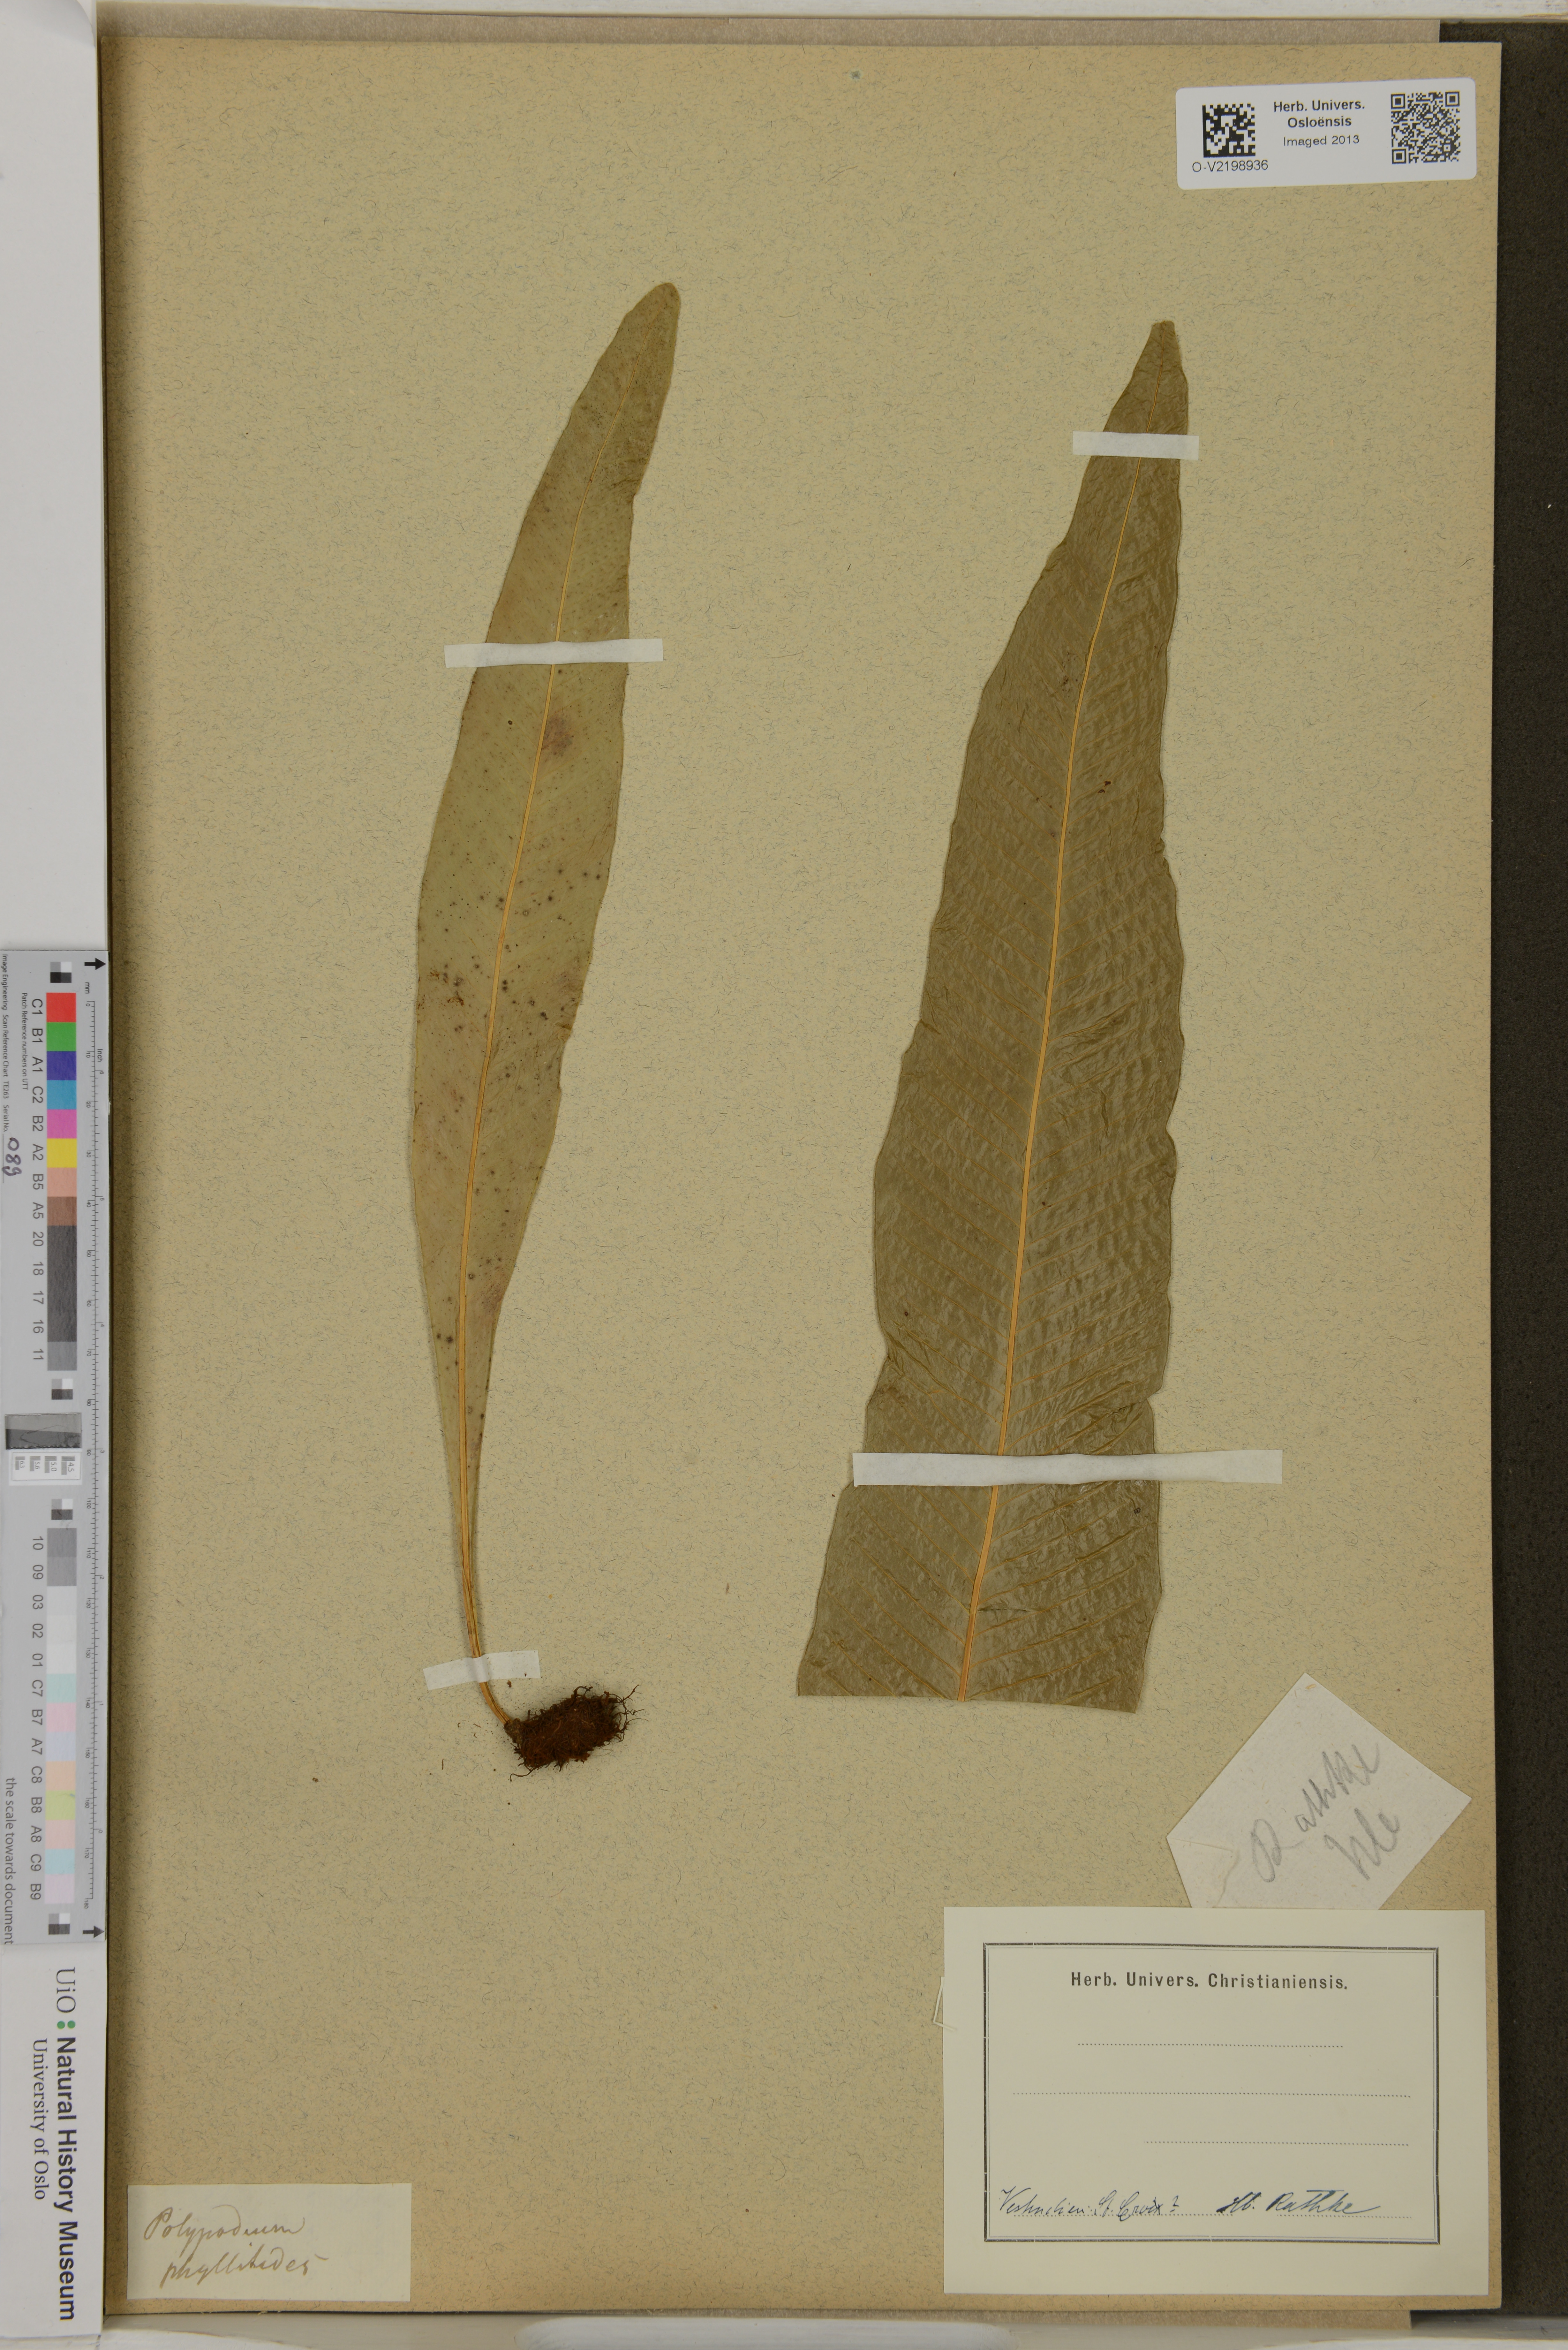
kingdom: Plantae
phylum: Tracheophyta
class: Polypodiopsida
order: Polypodiales
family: Polypodiaceae
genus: Polypodium
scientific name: Polypodium phyllitidis
